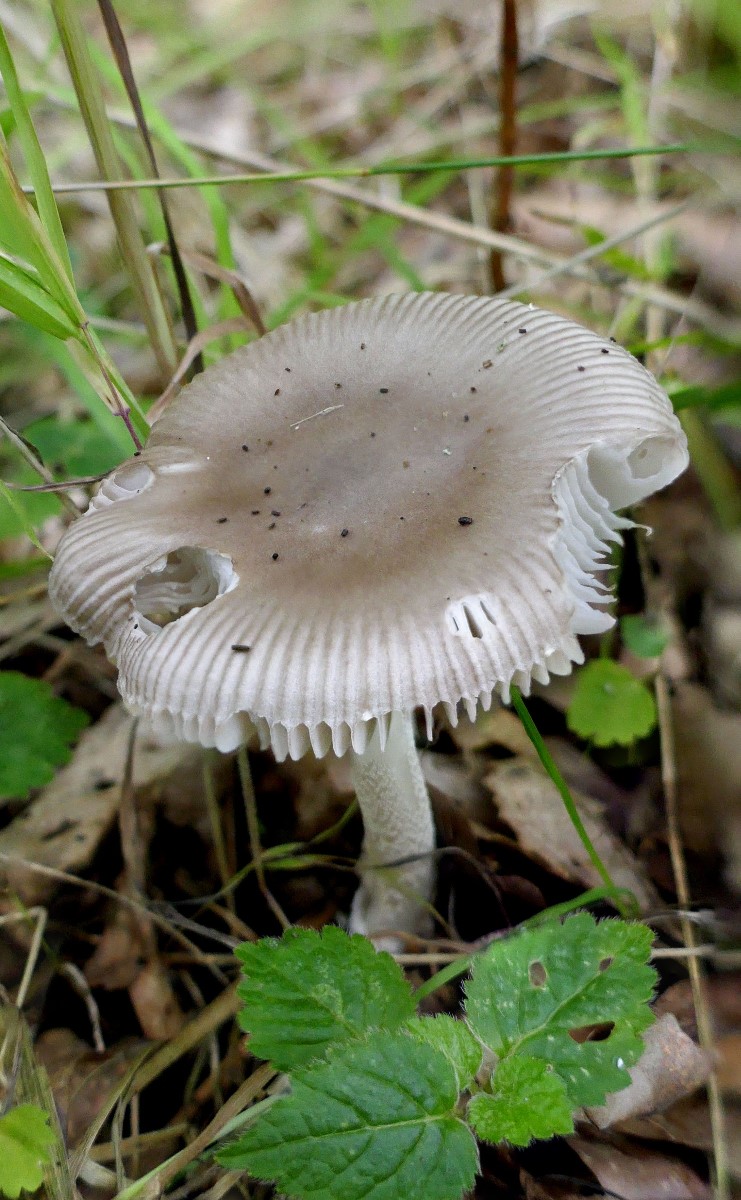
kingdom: Fungi
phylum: Basidiomycota
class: Agaricomycetes
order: Agaricales
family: Amanitaceae
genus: Amanita
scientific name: Amanita vaginata
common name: grå kam-fluesvamp
